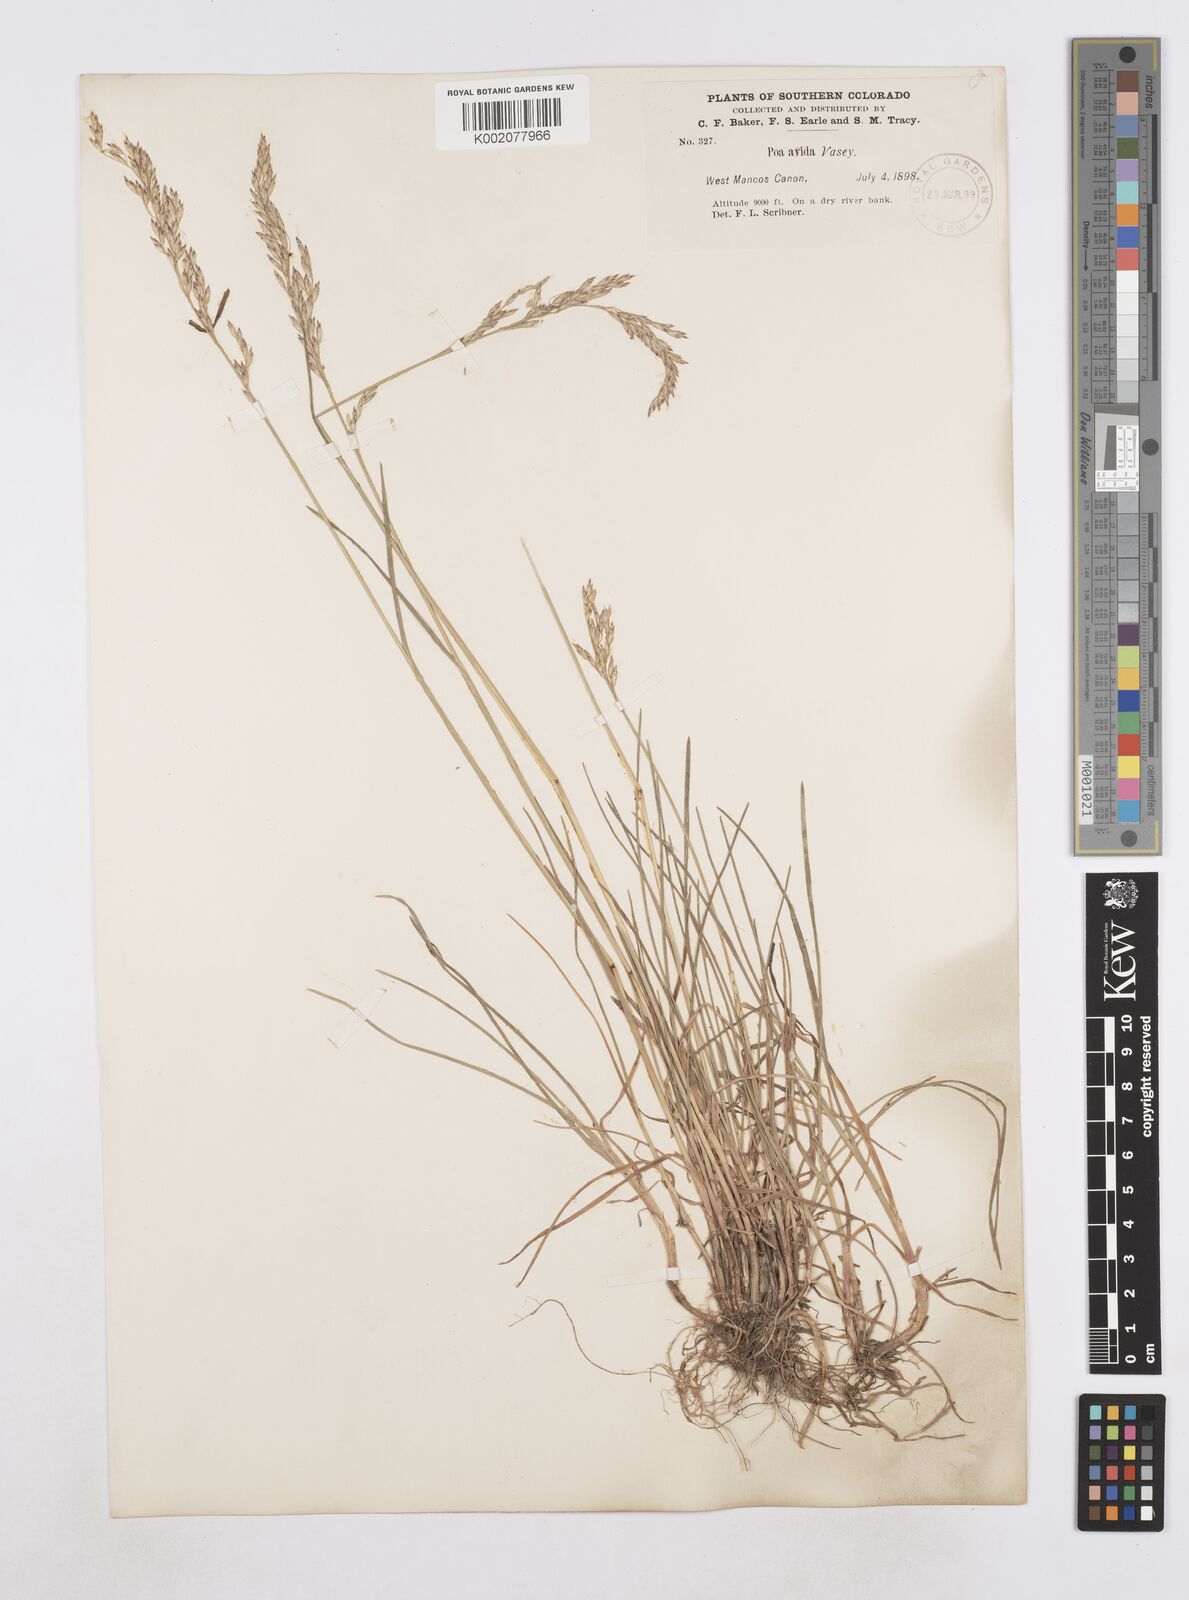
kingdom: Plantae
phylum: Tracheophyta
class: Liliopsida
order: Poales
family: Poaceae
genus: Poa
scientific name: Poa arida
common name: Plains bluegrass
